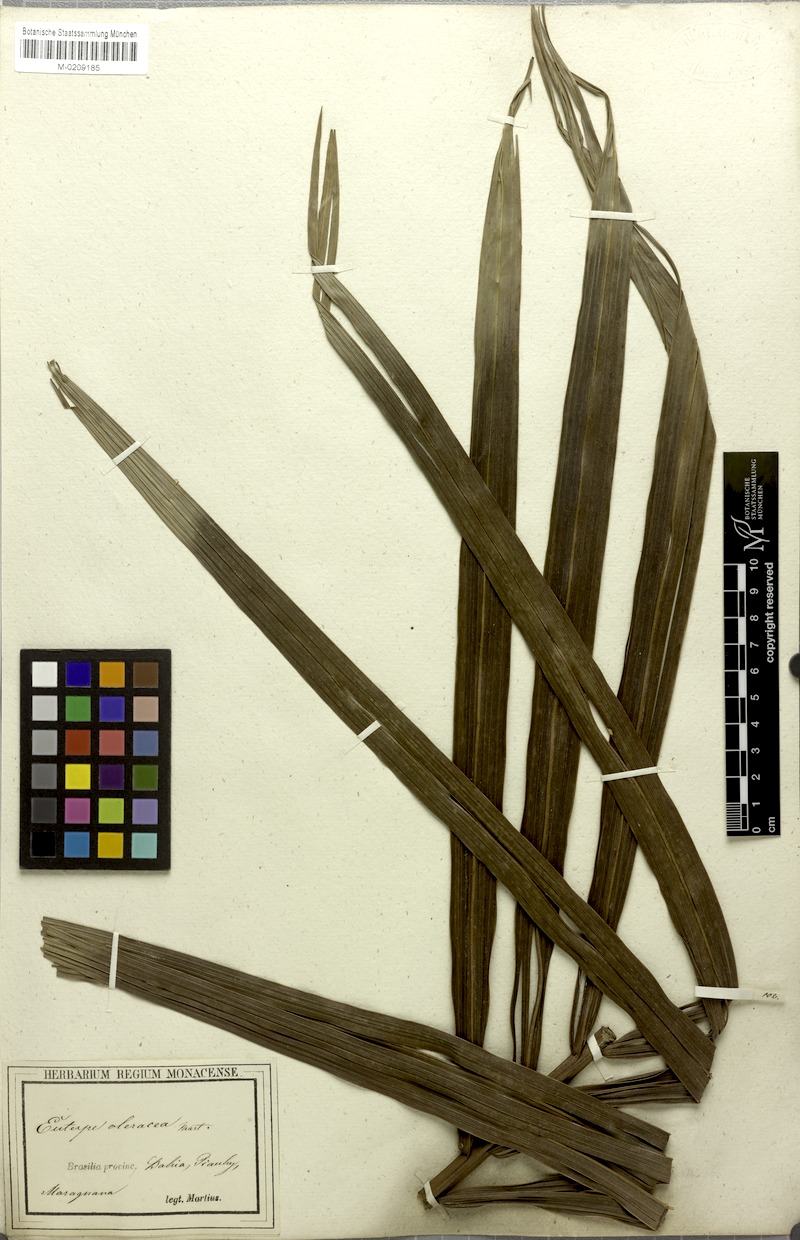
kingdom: Plantae
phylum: Tracheophyta
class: Liliopsida
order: Arecales
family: Arecaceae
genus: Euterpe
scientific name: Euterpe oleracea
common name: Assai palm
